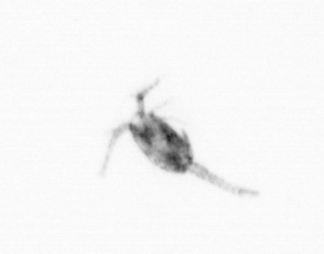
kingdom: Animalia
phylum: Arthropoda
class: Copepoda
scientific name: Copepoda
